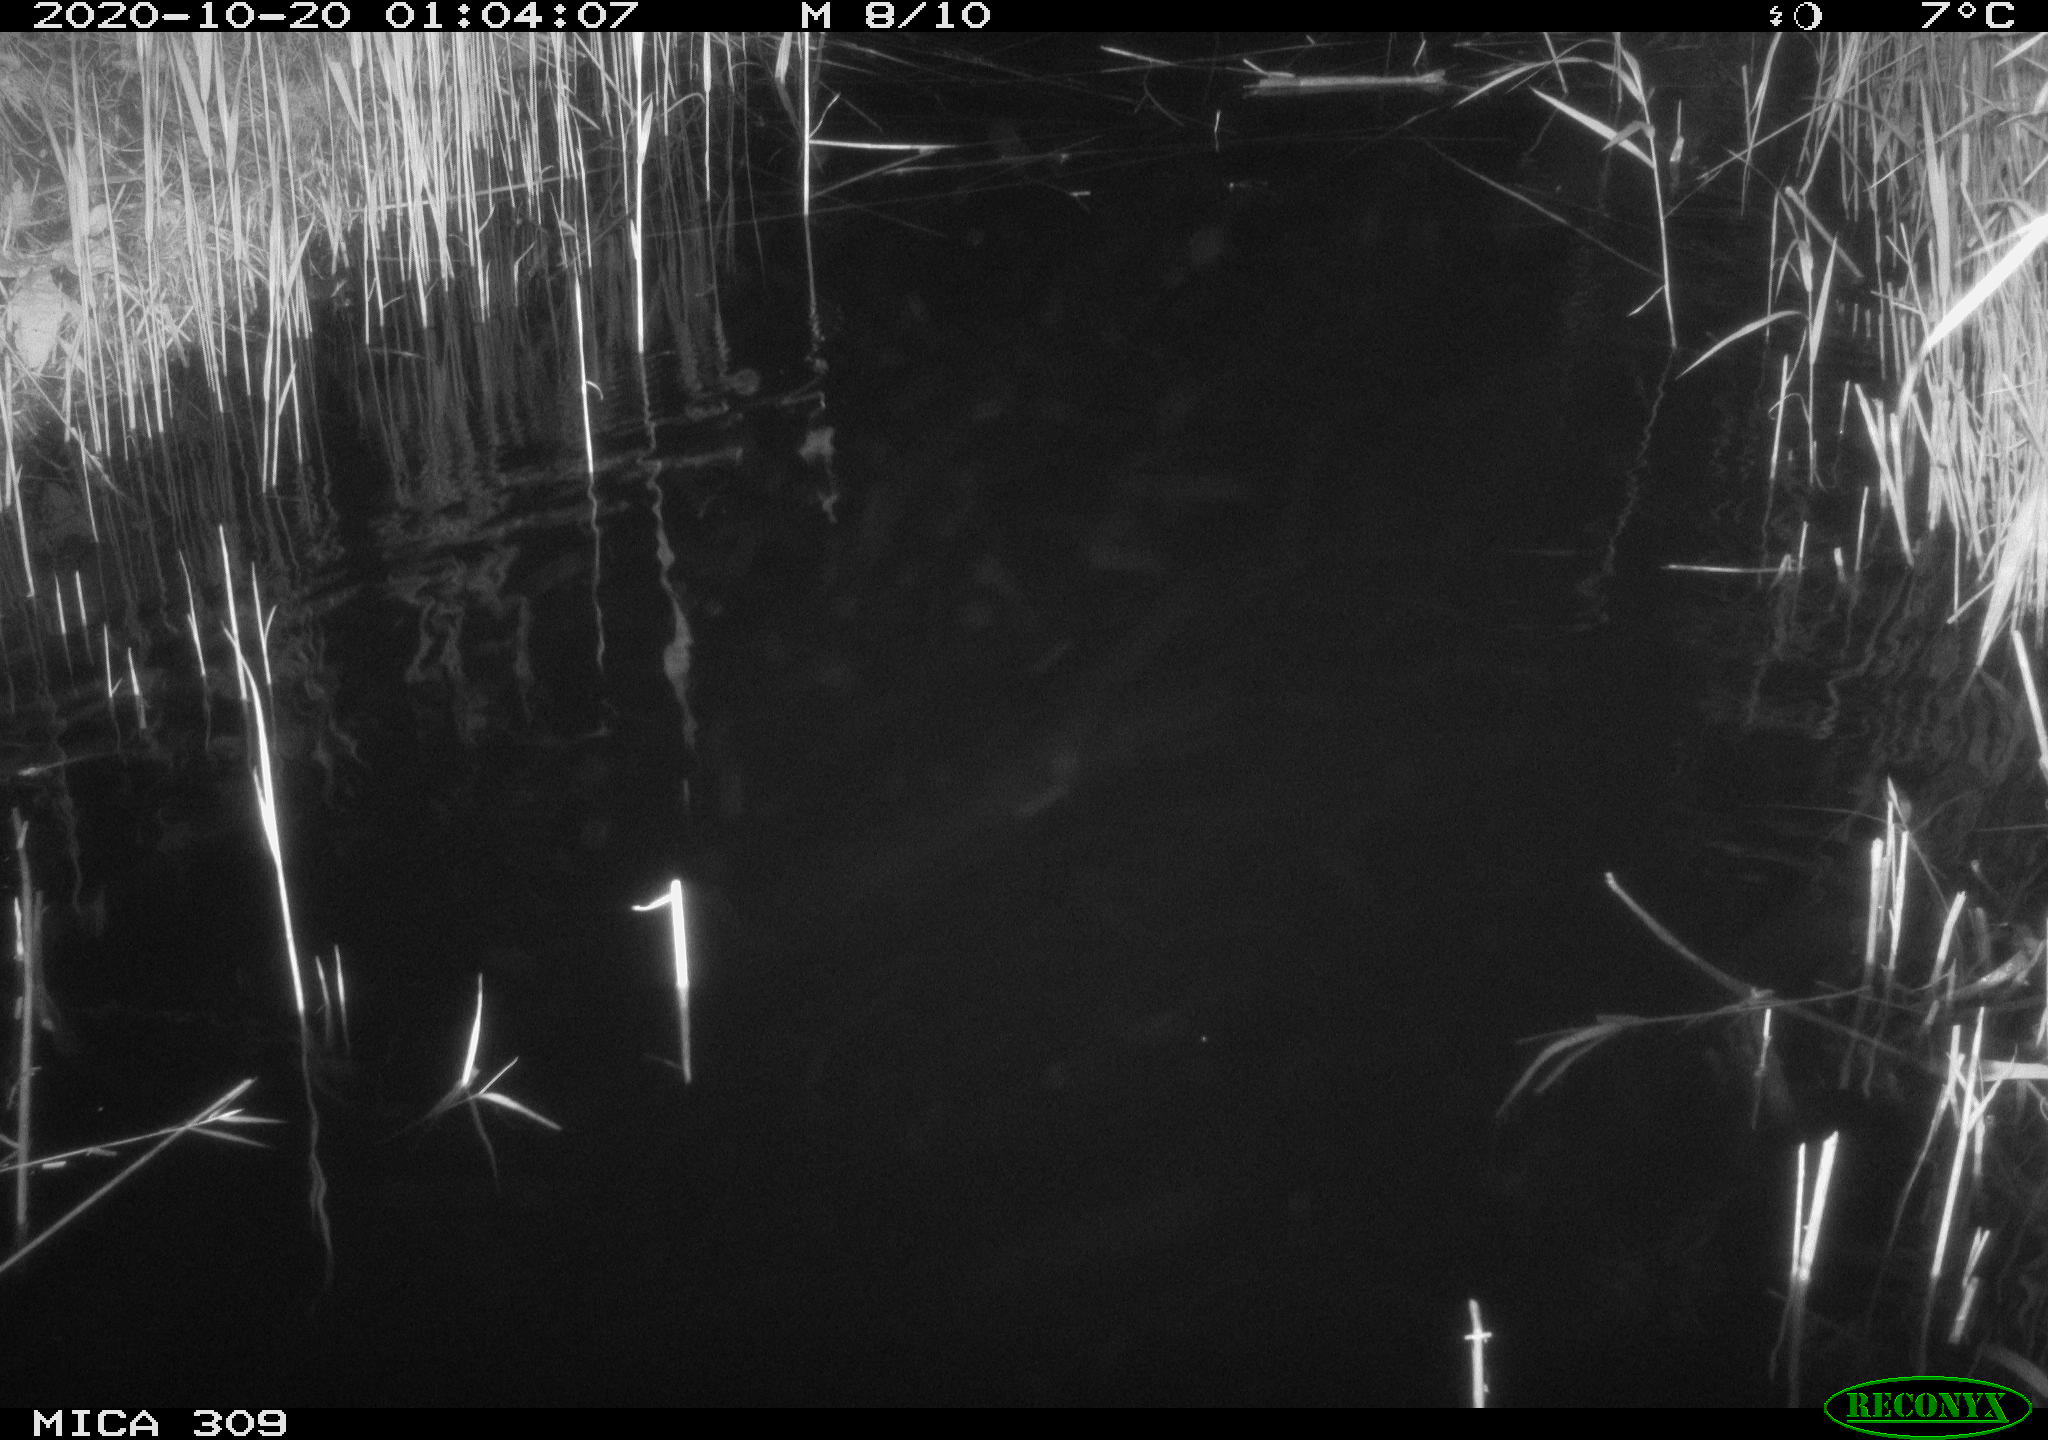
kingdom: Animalia
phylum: Chordata
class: Mammalia
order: Rodentia
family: Muridae
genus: Rattus
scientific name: Rattus norvegicus
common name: Brown rat
